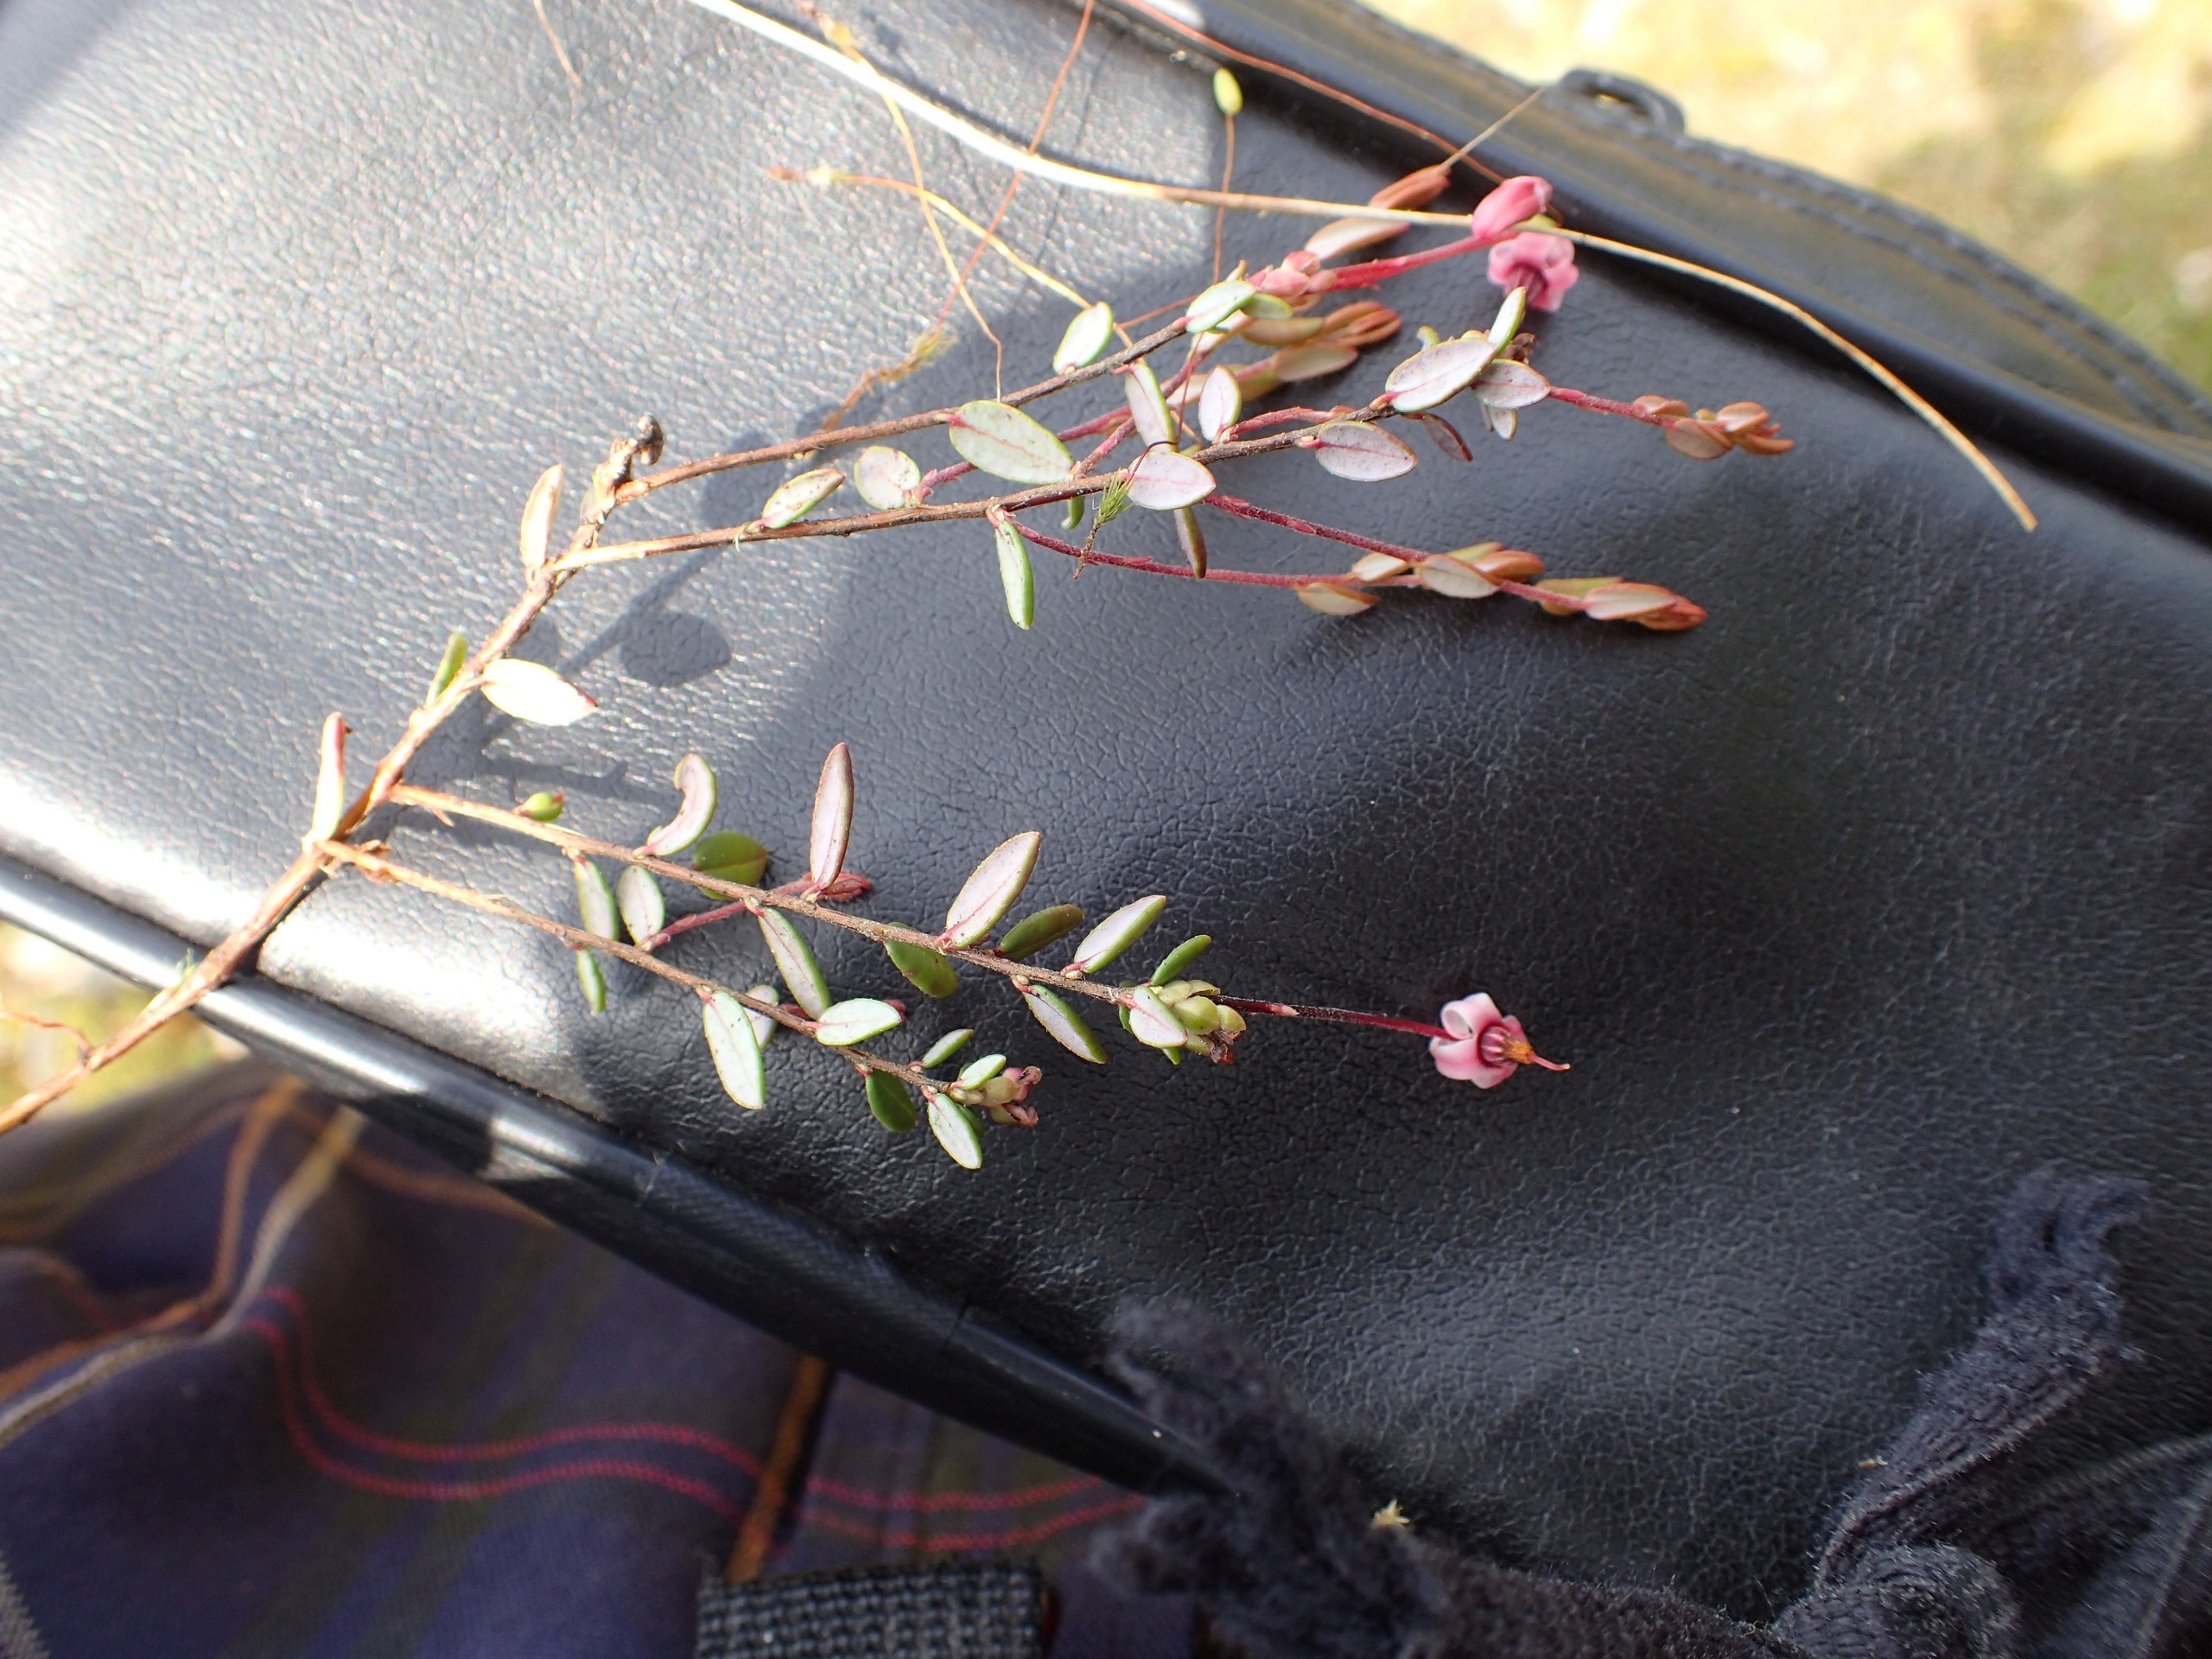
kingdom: Plantae
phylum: Tracheophyta
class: Magnoliopsida
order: Ericales
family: Ericaceae
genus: Vaccinium
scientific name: Vaccinium oxycoccos
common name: Tranebær
